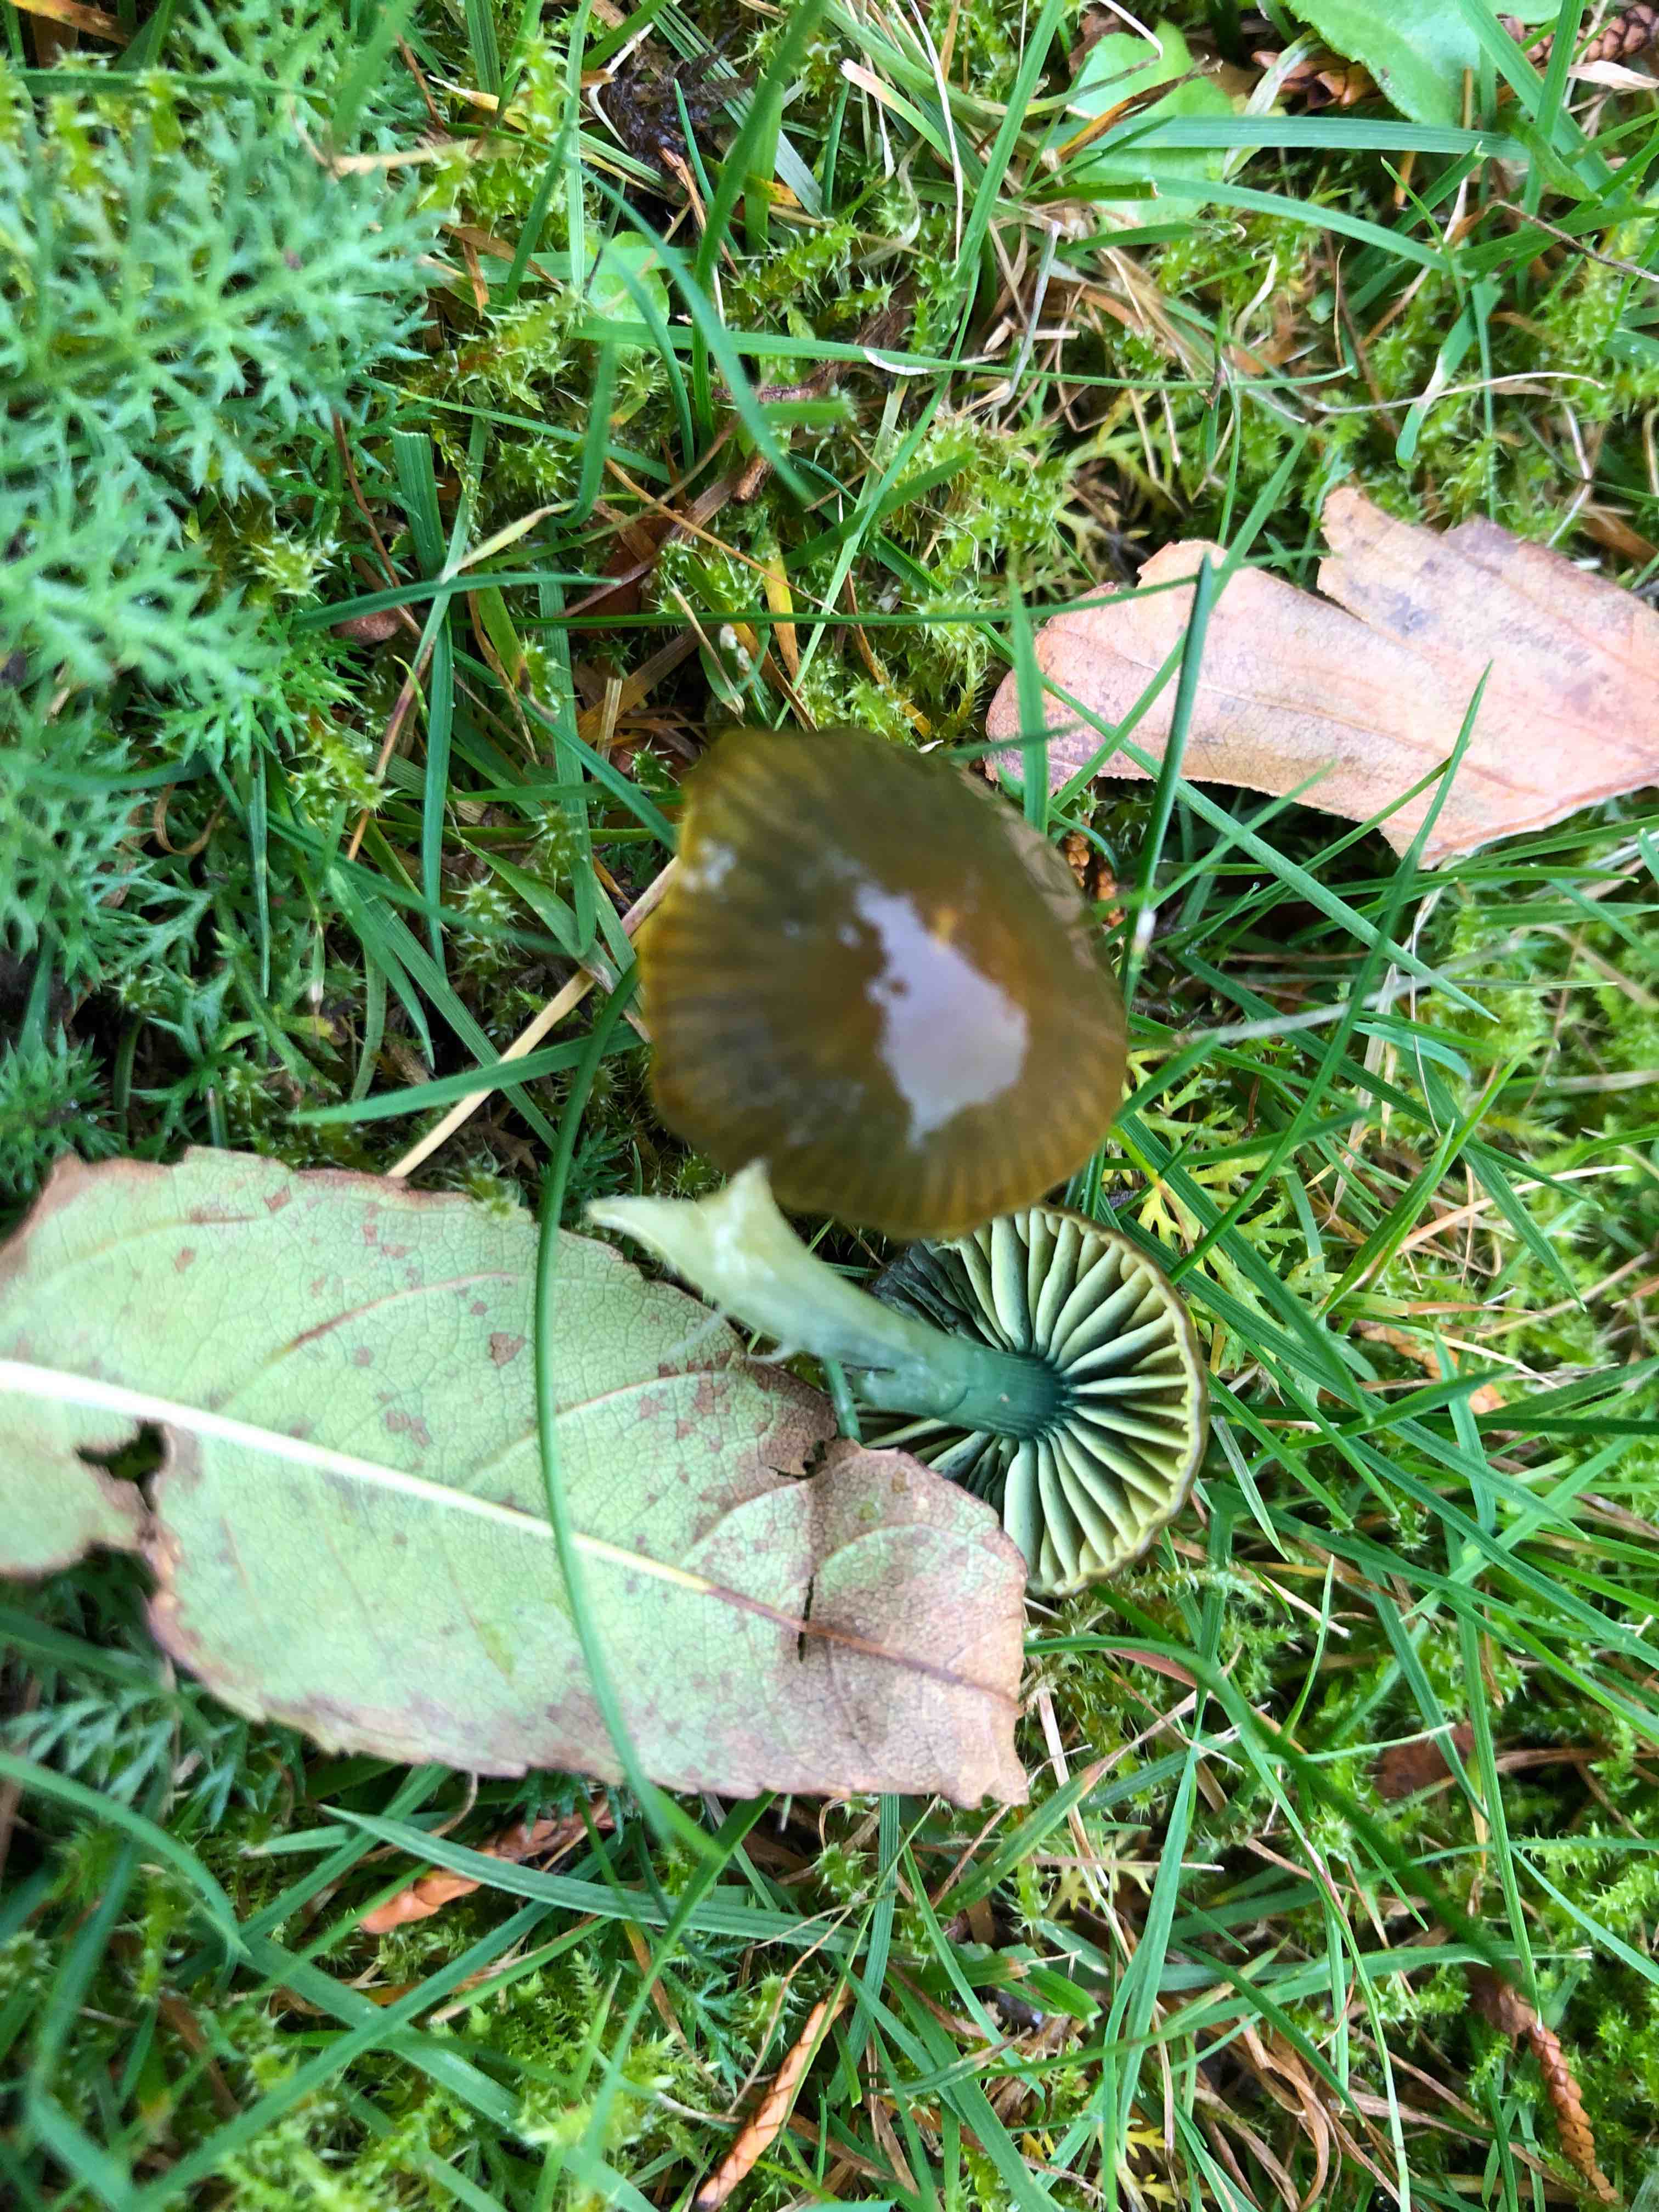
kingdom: Fungi
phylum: Basidiomycota
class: Agaricomycetes
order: Agaricales
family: Hygrophoraceae
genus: Gliophorus
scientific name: Gliophorus psittacinus
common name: papegøje-vokshat
